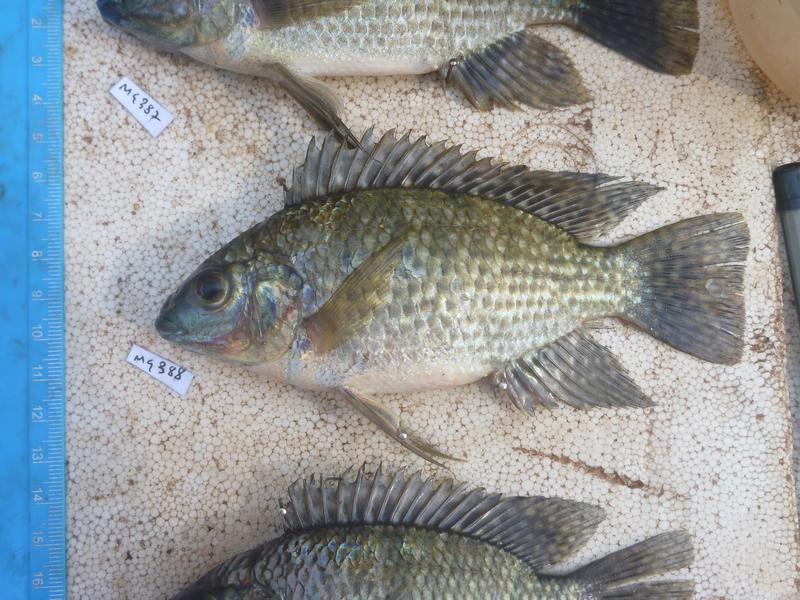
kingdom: Animalia
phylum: Chordata
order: Perciformes
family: Cichlidae
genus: Oreochromis
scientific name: Oreochromis leucostictus
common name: Blue spotted tilapia
